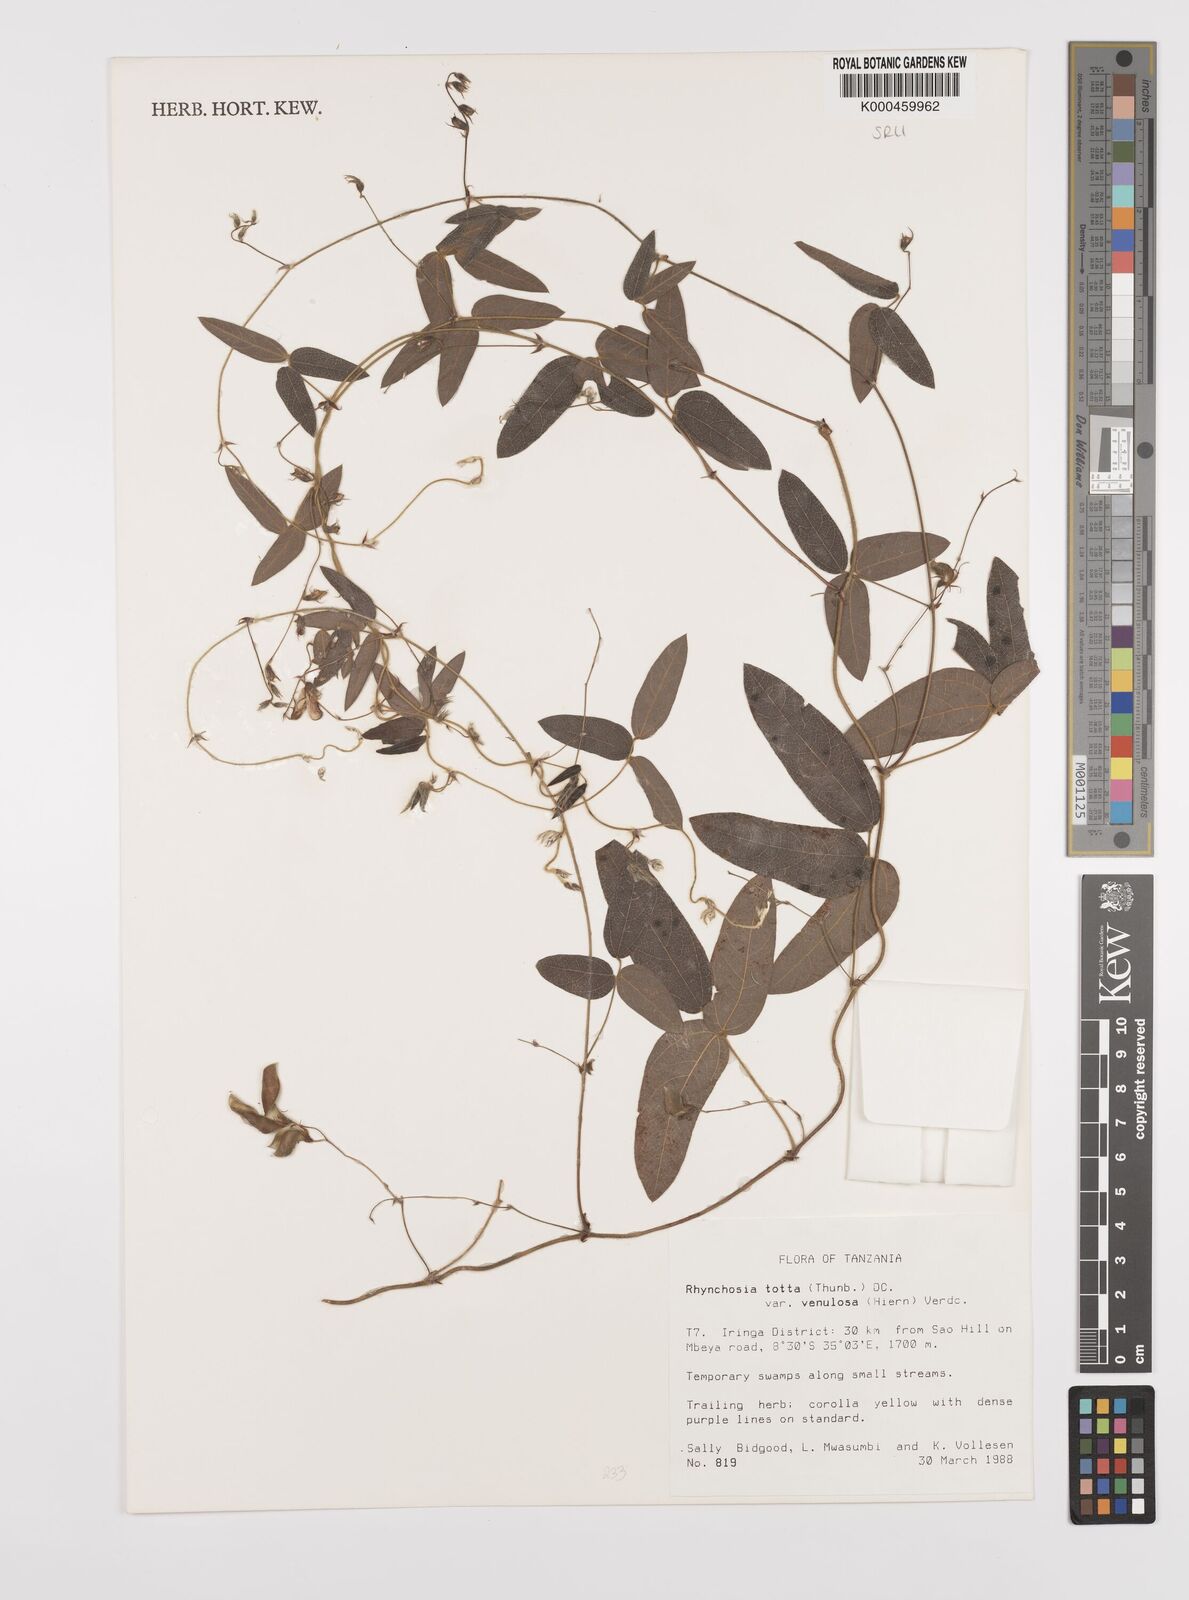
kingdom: Plantae
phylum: Tracheophyta
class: Magnoliopsida
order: Fabales
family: Fabaceae
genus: Rhynchosia
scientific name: Rhynchosia totta
